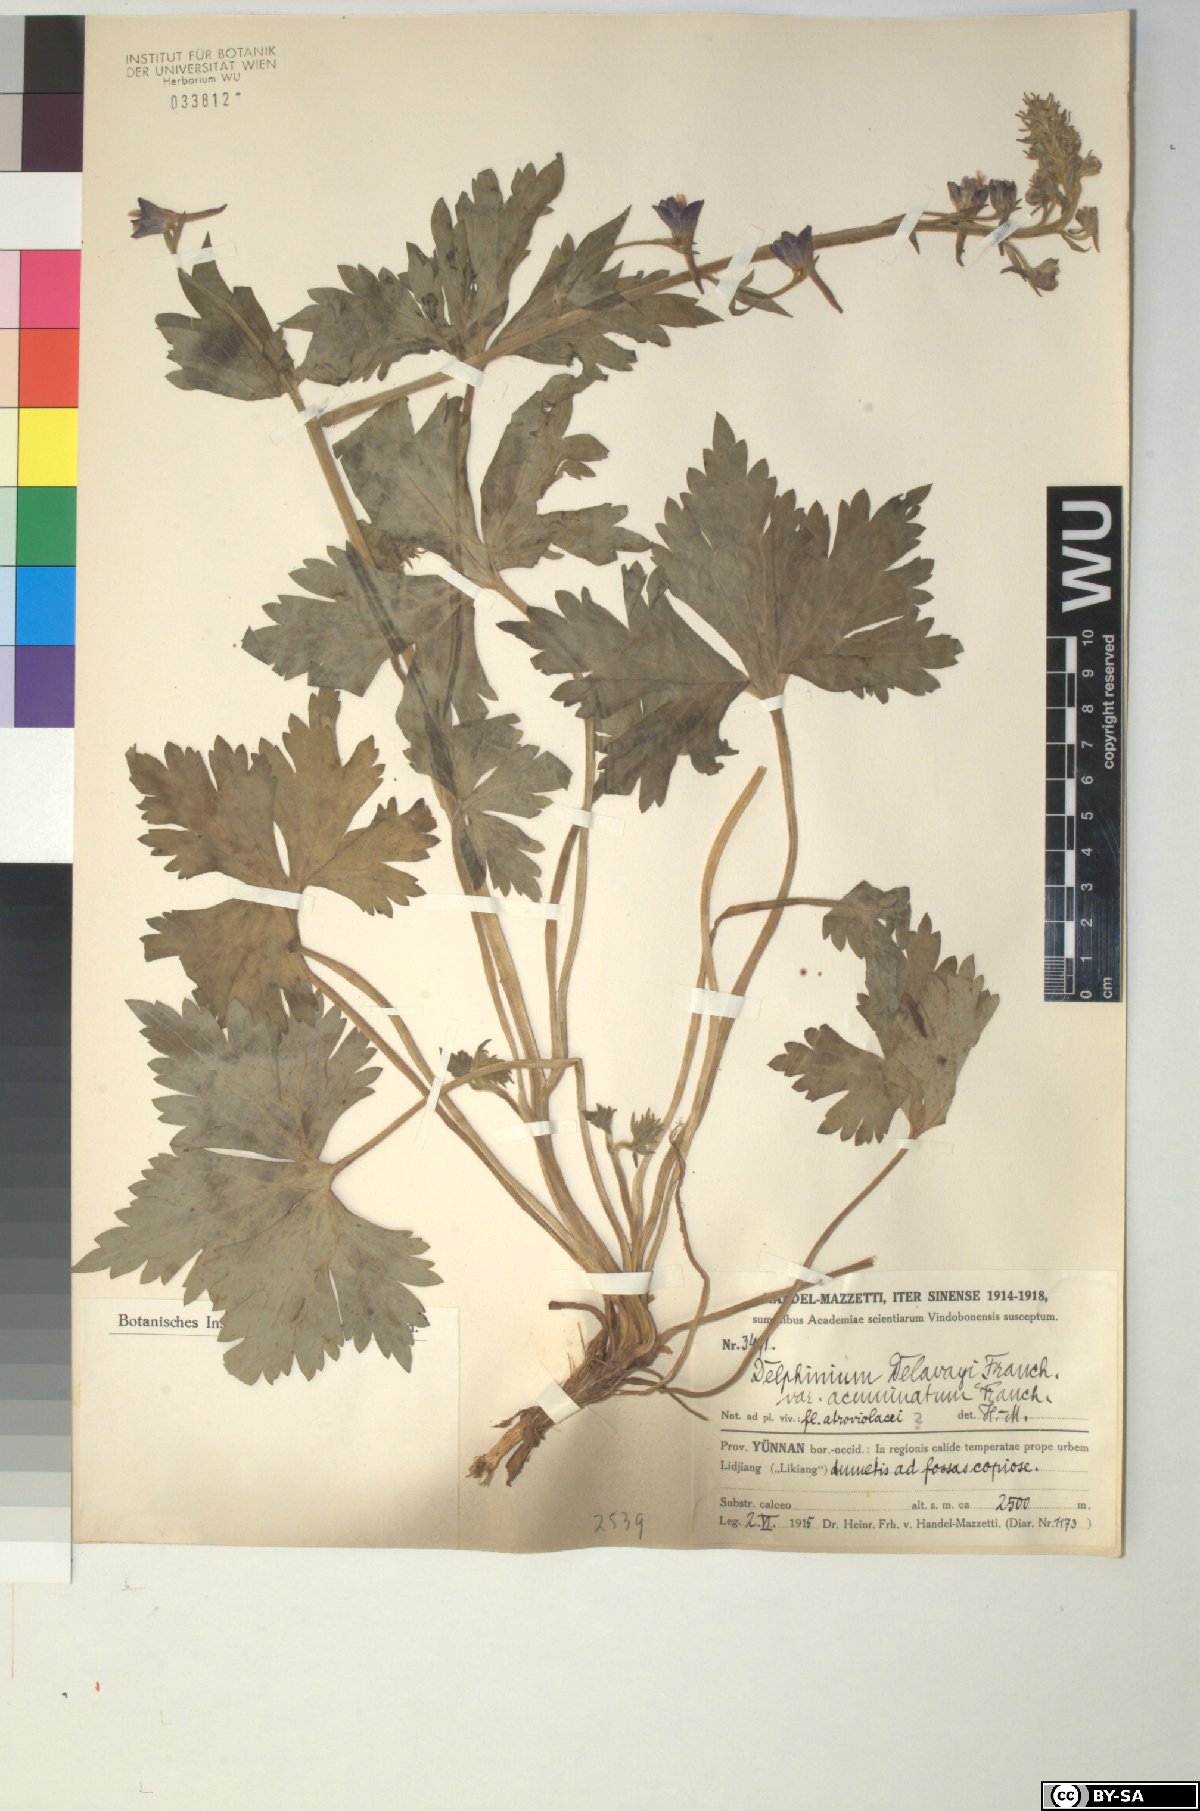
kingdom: Plantae
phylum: Tracheophyta
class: Magnoliopsida
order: Ranunculales
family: Ranunculaceae
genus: Delphinium
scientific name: Delphinium delavayi
